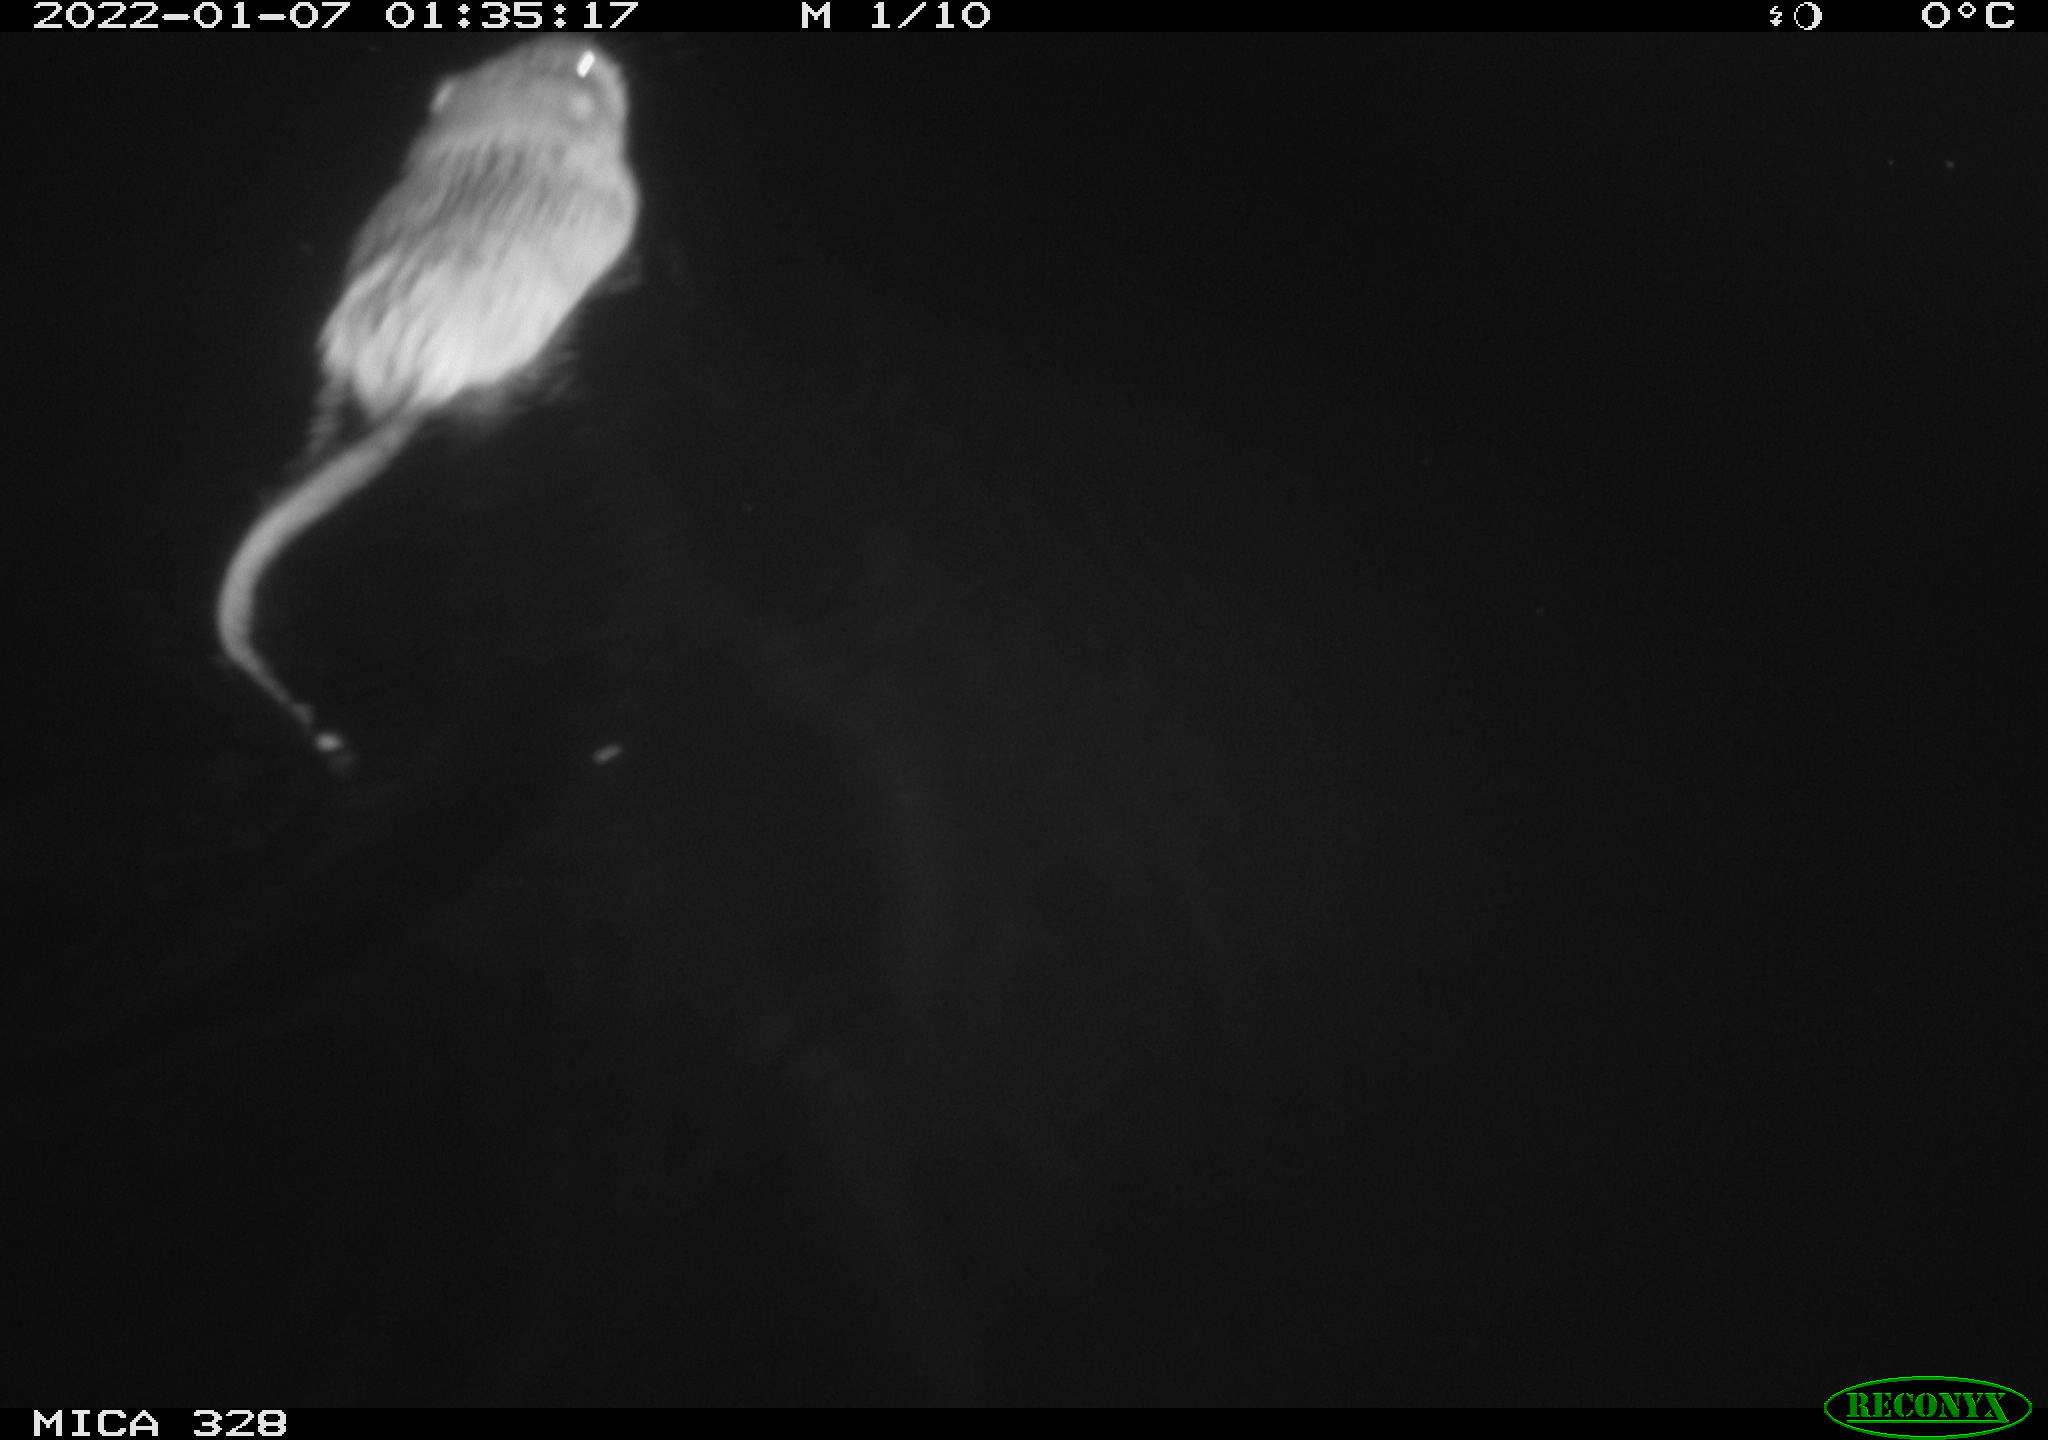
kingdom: Animalia
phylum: Chordata
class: Mammalia
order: Rodentia
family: Cricetidae
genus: Ondatra
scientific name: Ondatra zibethicus
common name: Muskrat
